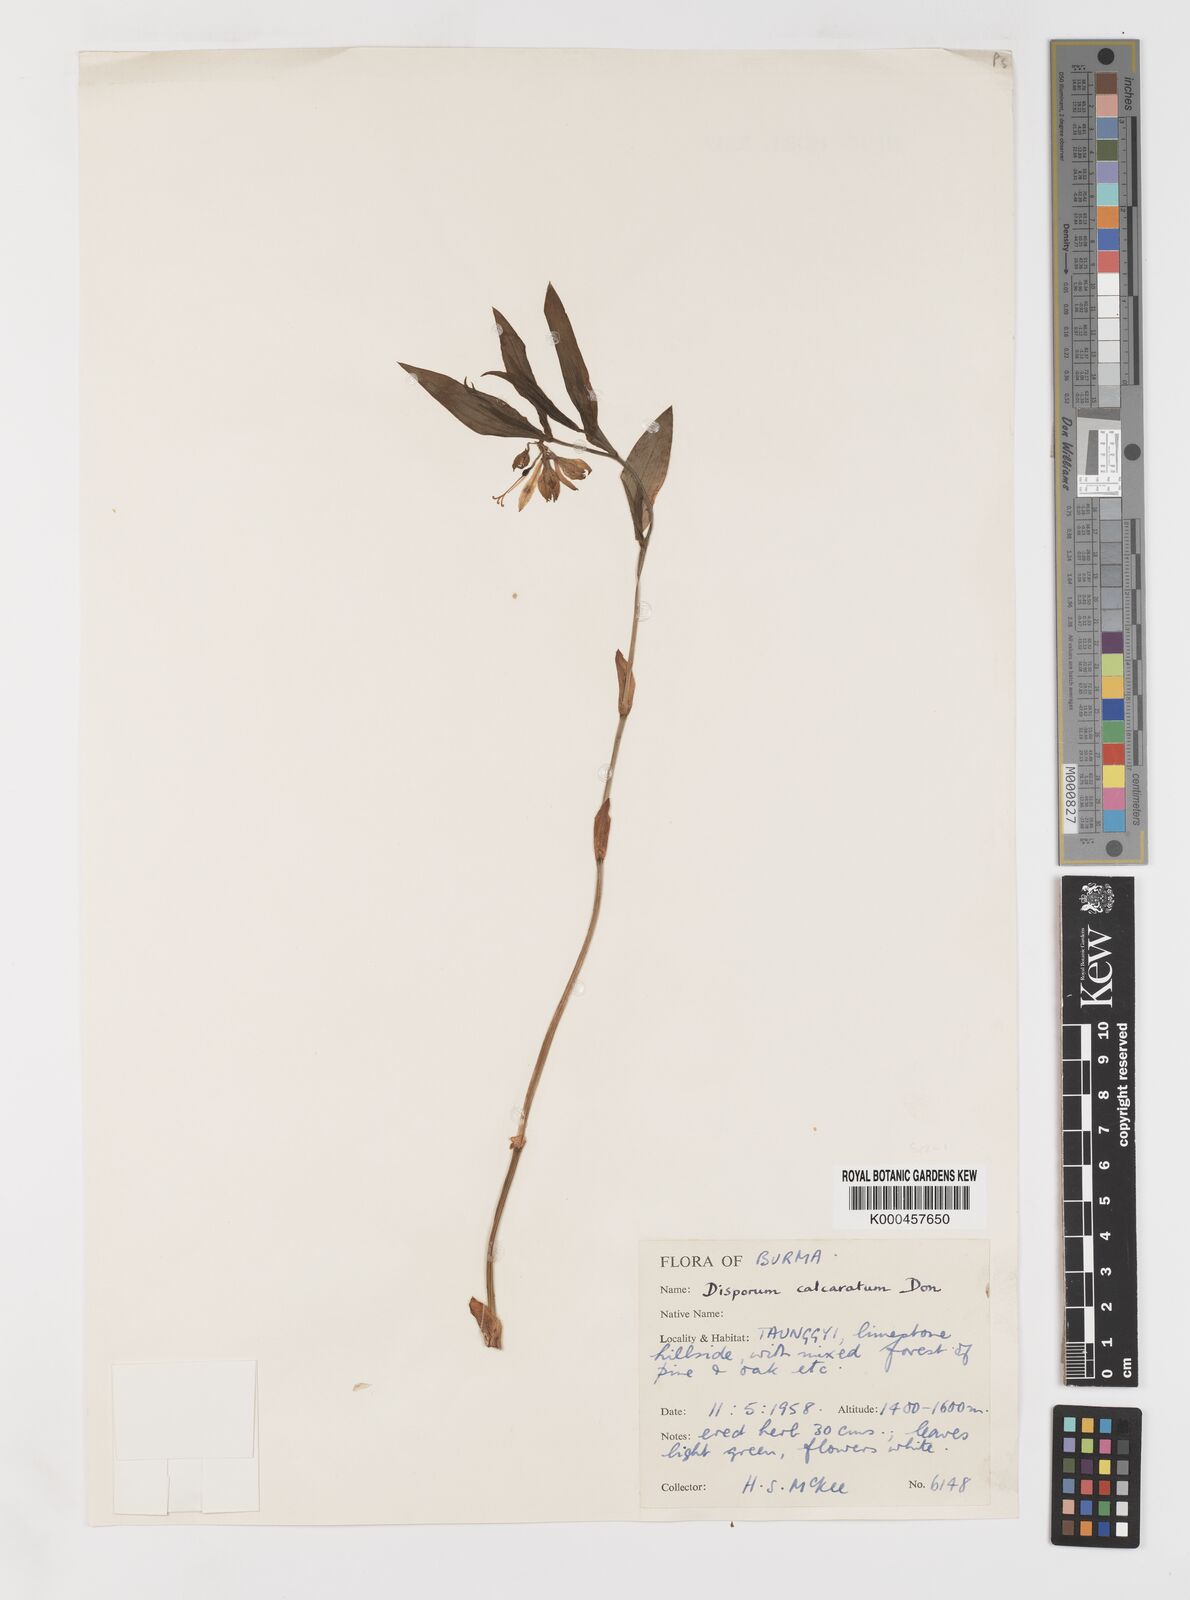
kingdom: Plantae
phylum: Tracheophyta
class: Liliopsida
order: Liliales
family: Colchicaceae
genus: Disporum
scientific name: Disporum calcaratum
